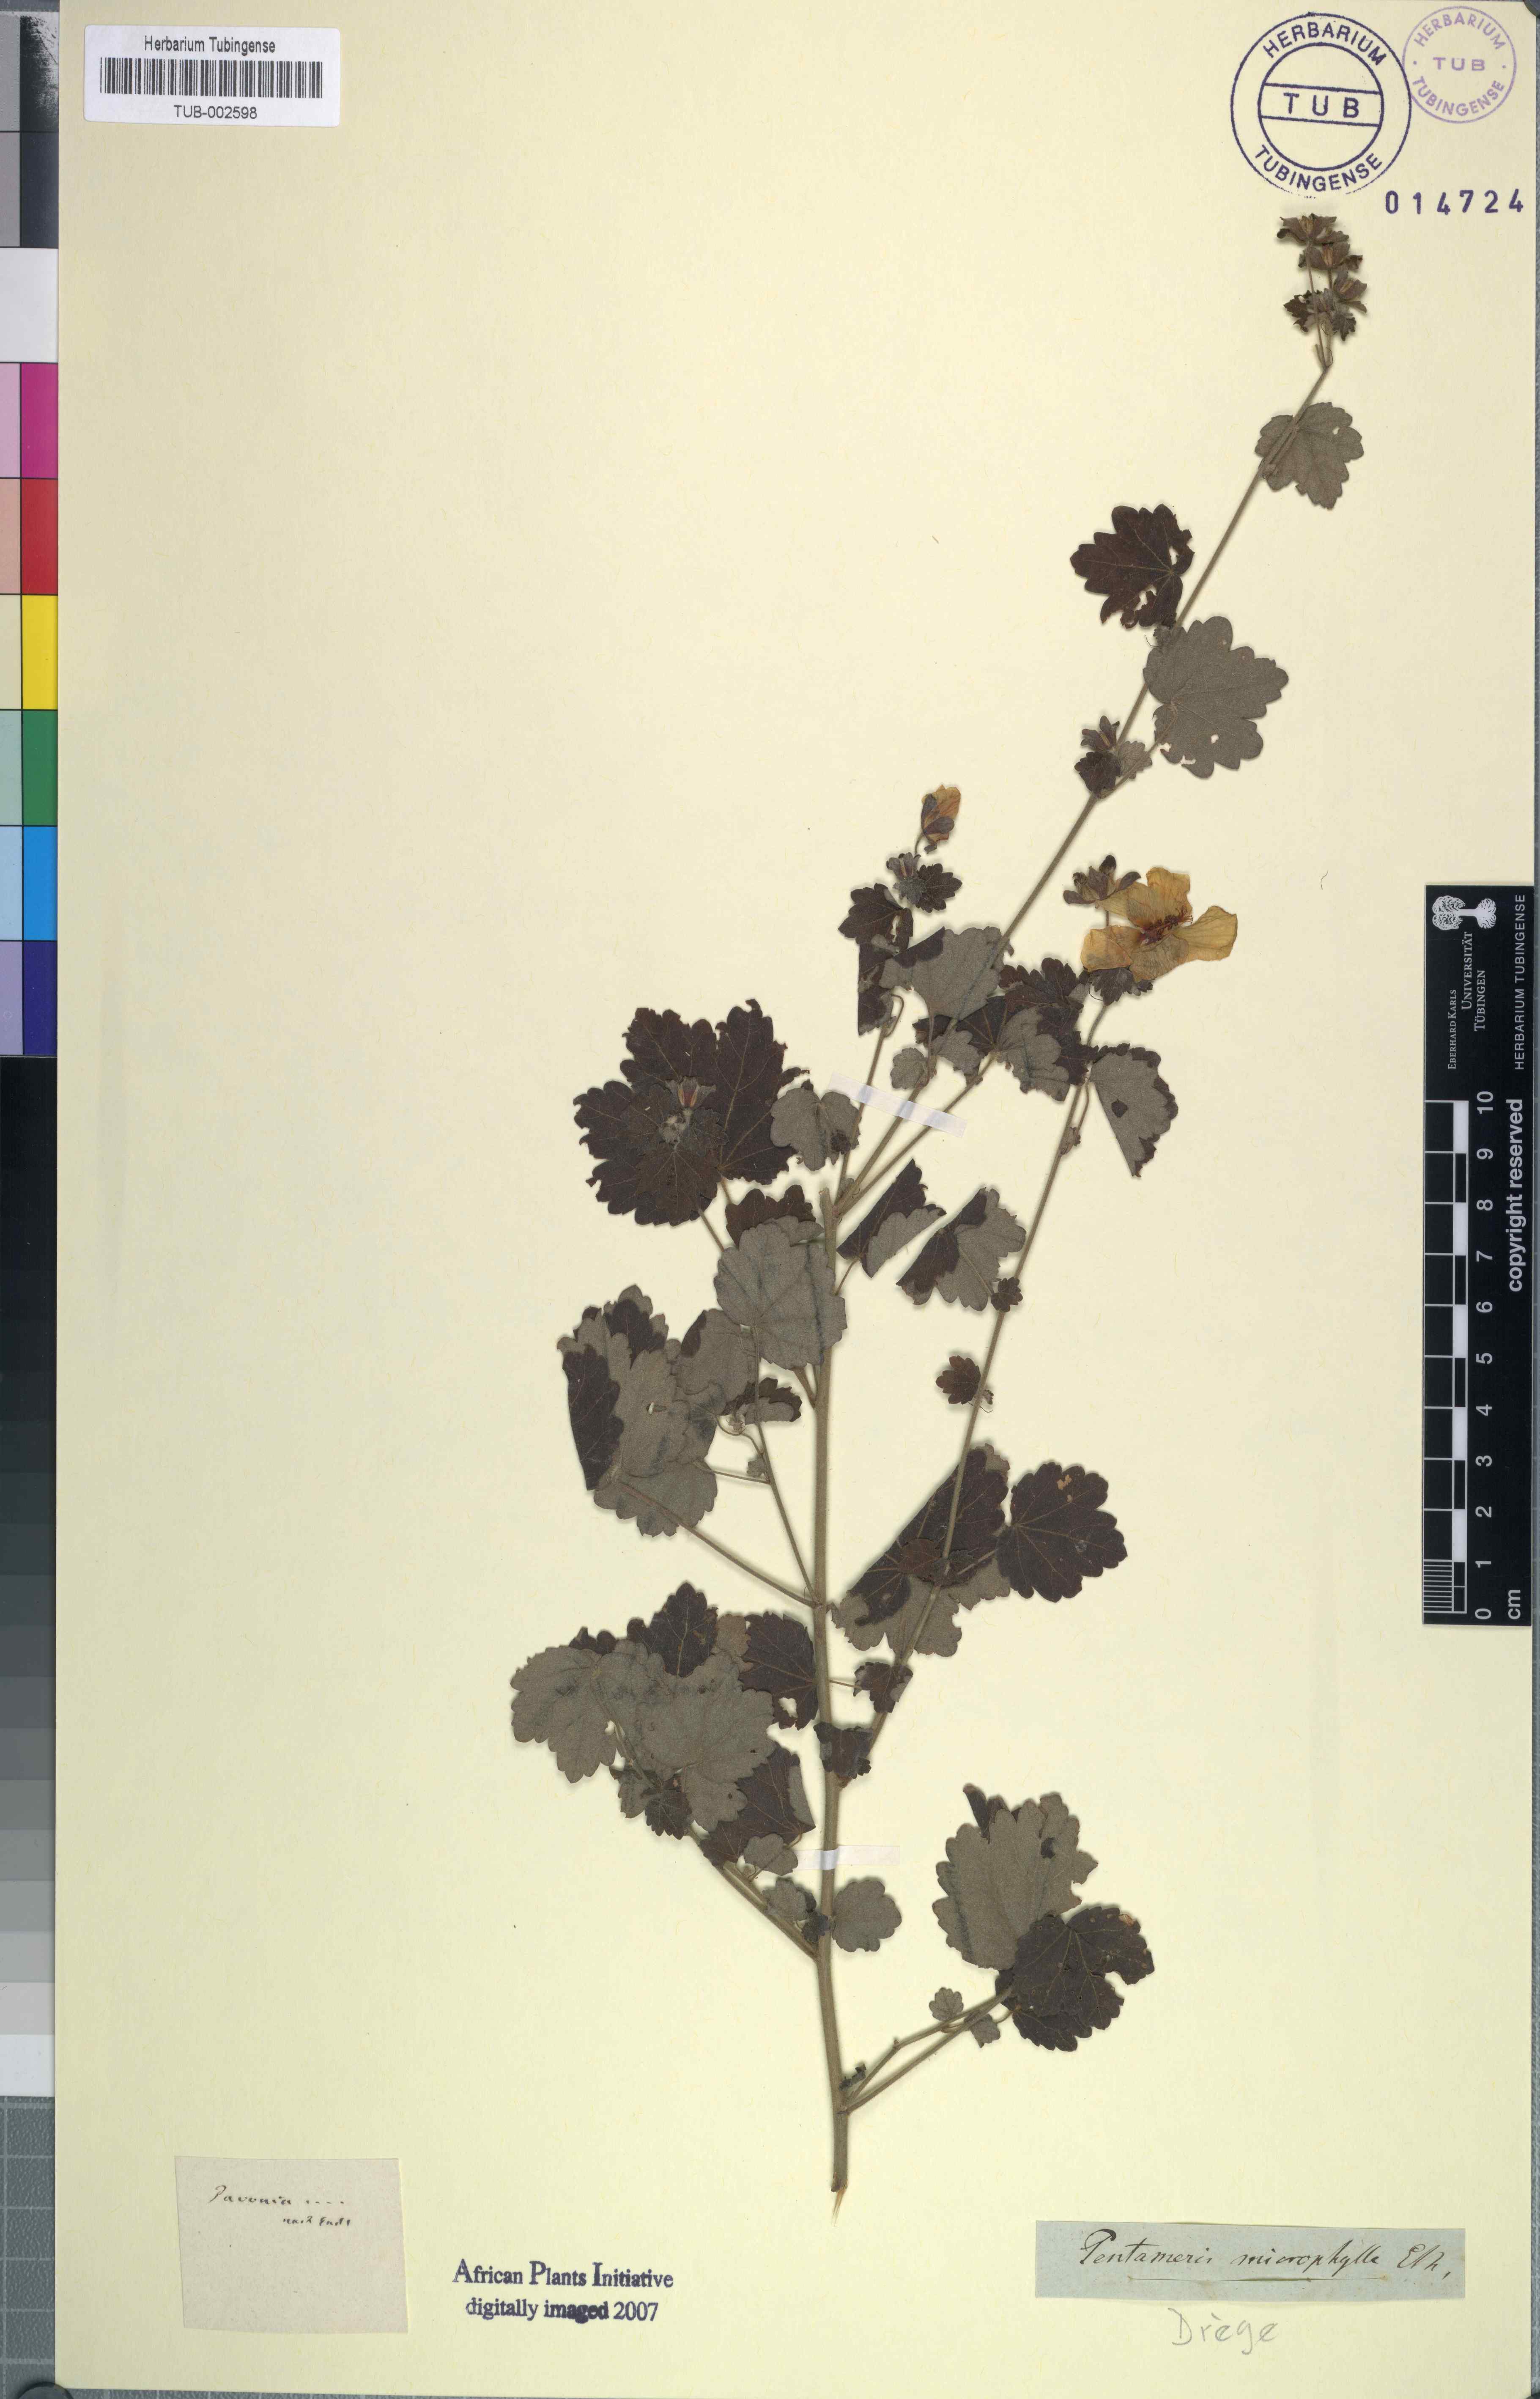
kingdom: Plantae
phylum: Tracheophyta
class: Magnoliopsida
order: Malvales
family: Malvaceae
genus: Pavonia
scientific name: Pavonia burchellii
